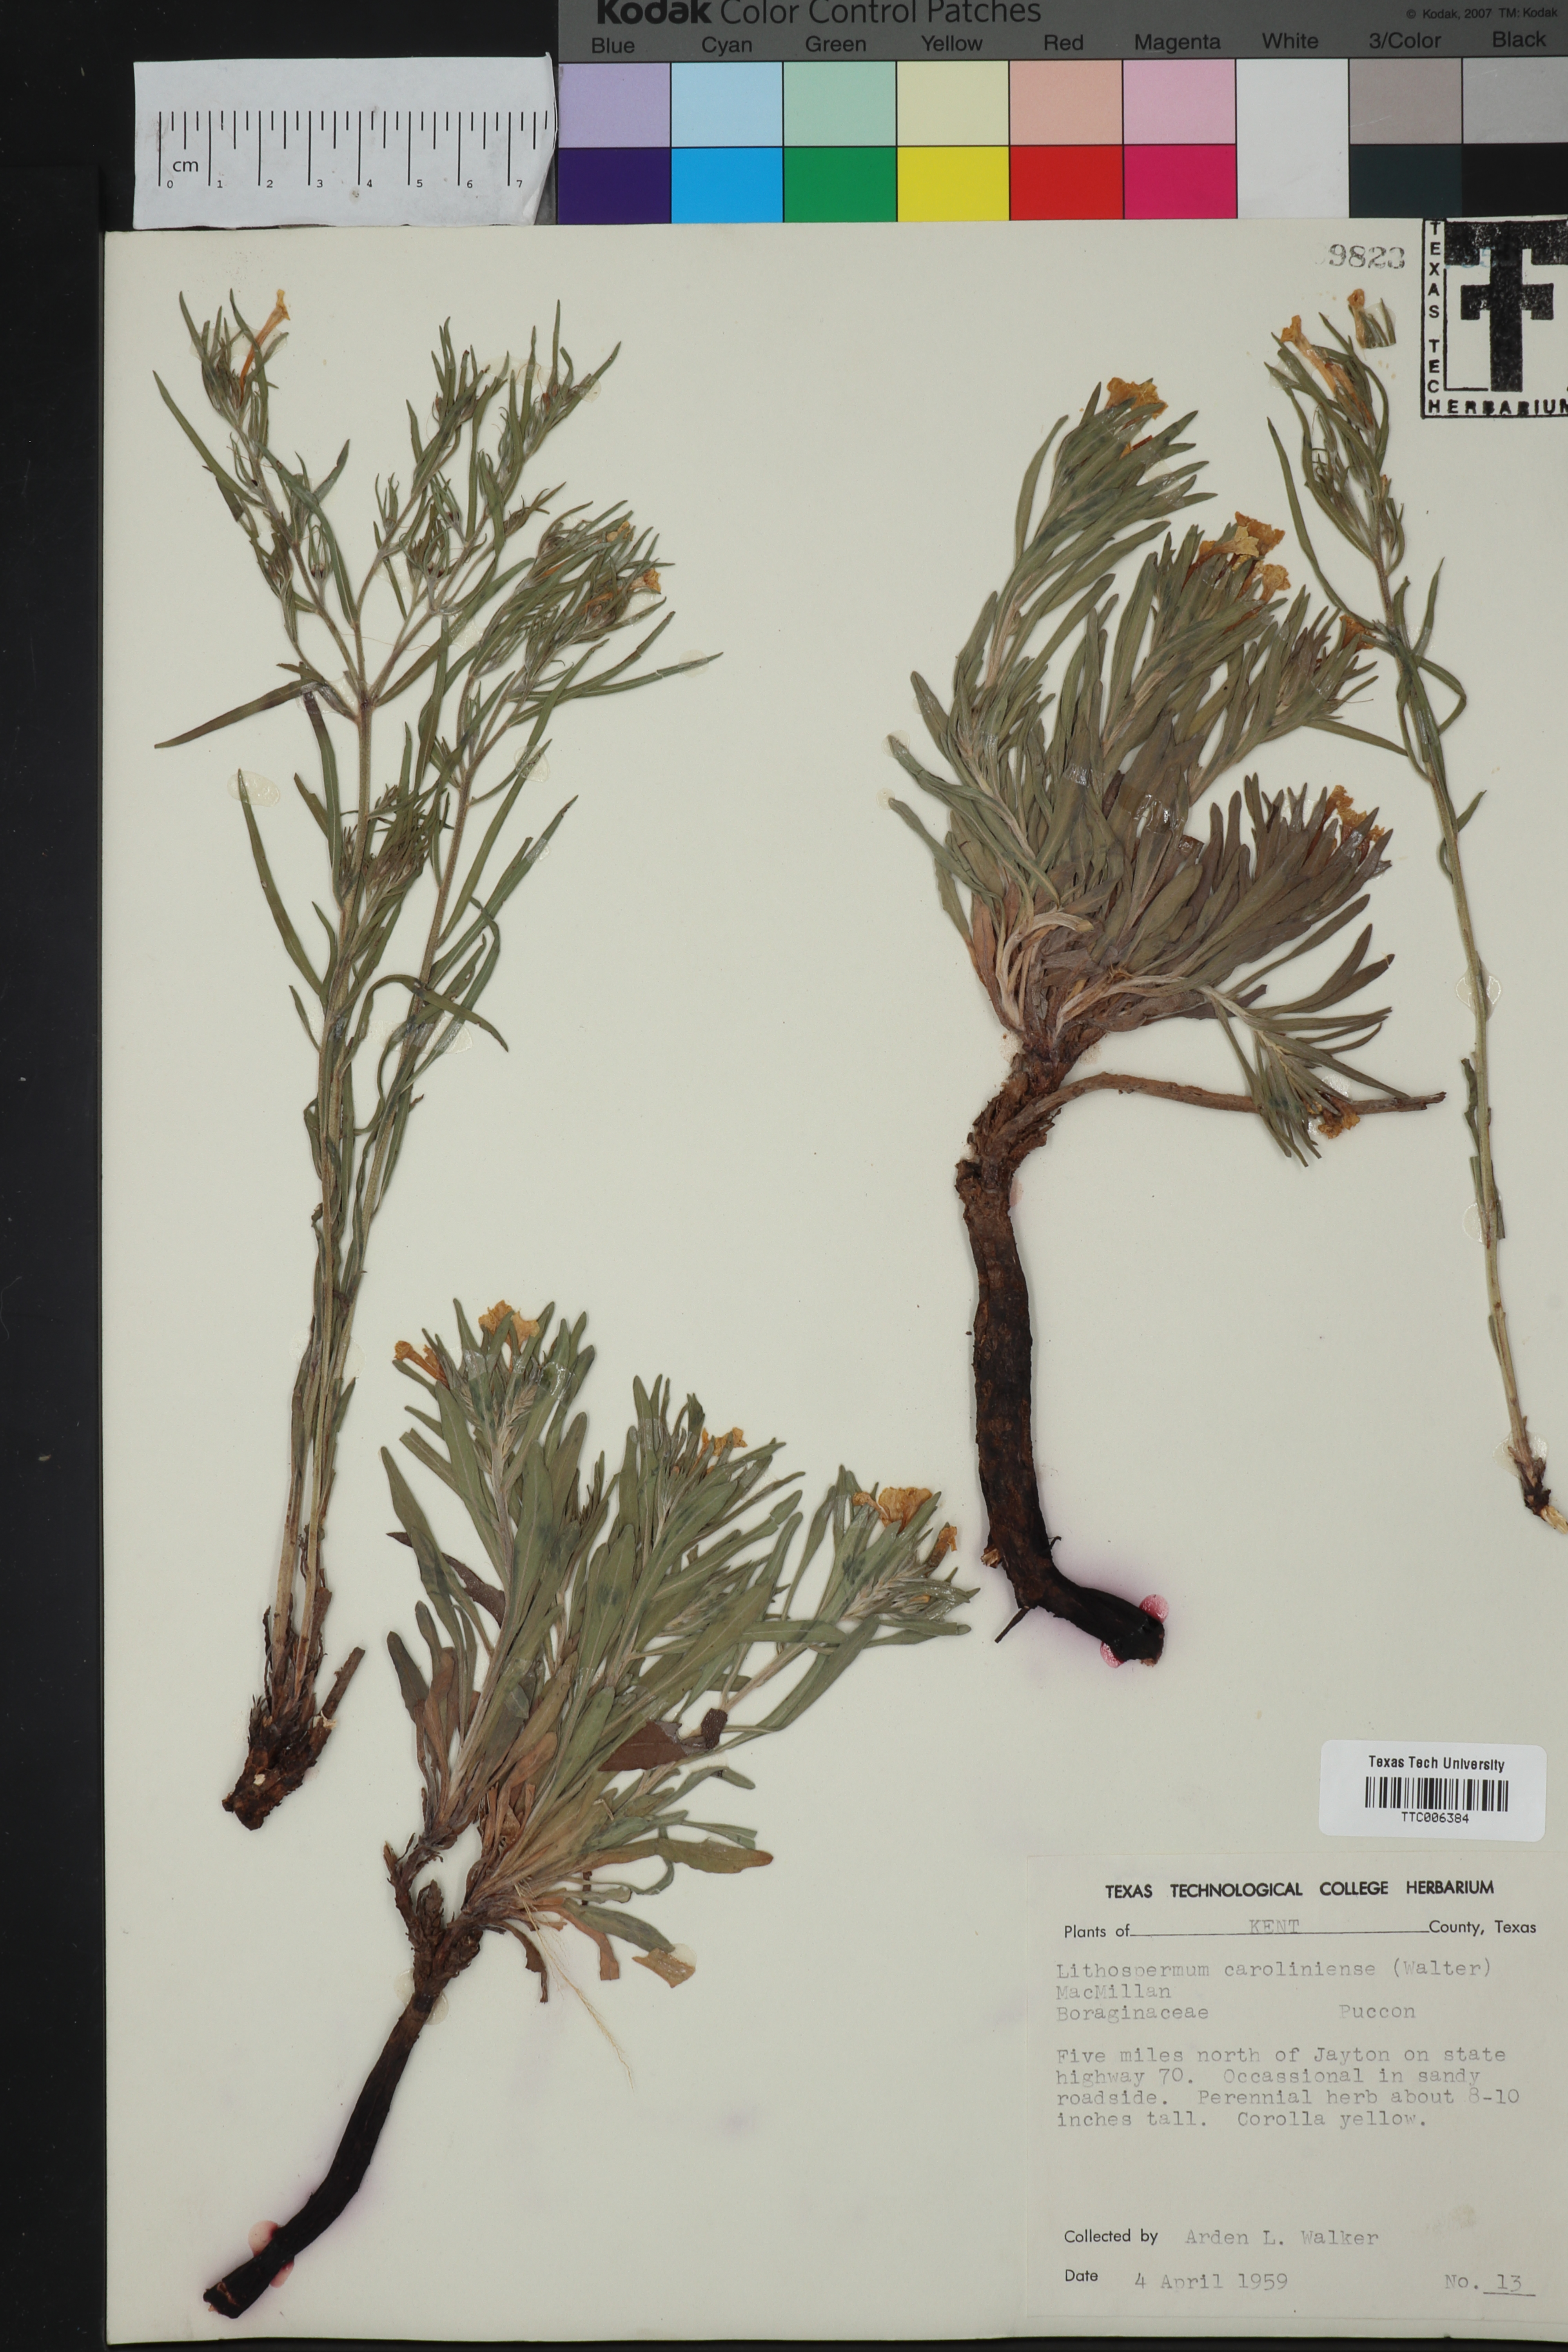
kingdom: Plantae
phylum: Tracheophyta
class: Magnoliopsida
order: Boraginales
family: Boraginaceae
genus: Lithospermum
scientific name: Lithospermum carolinense
